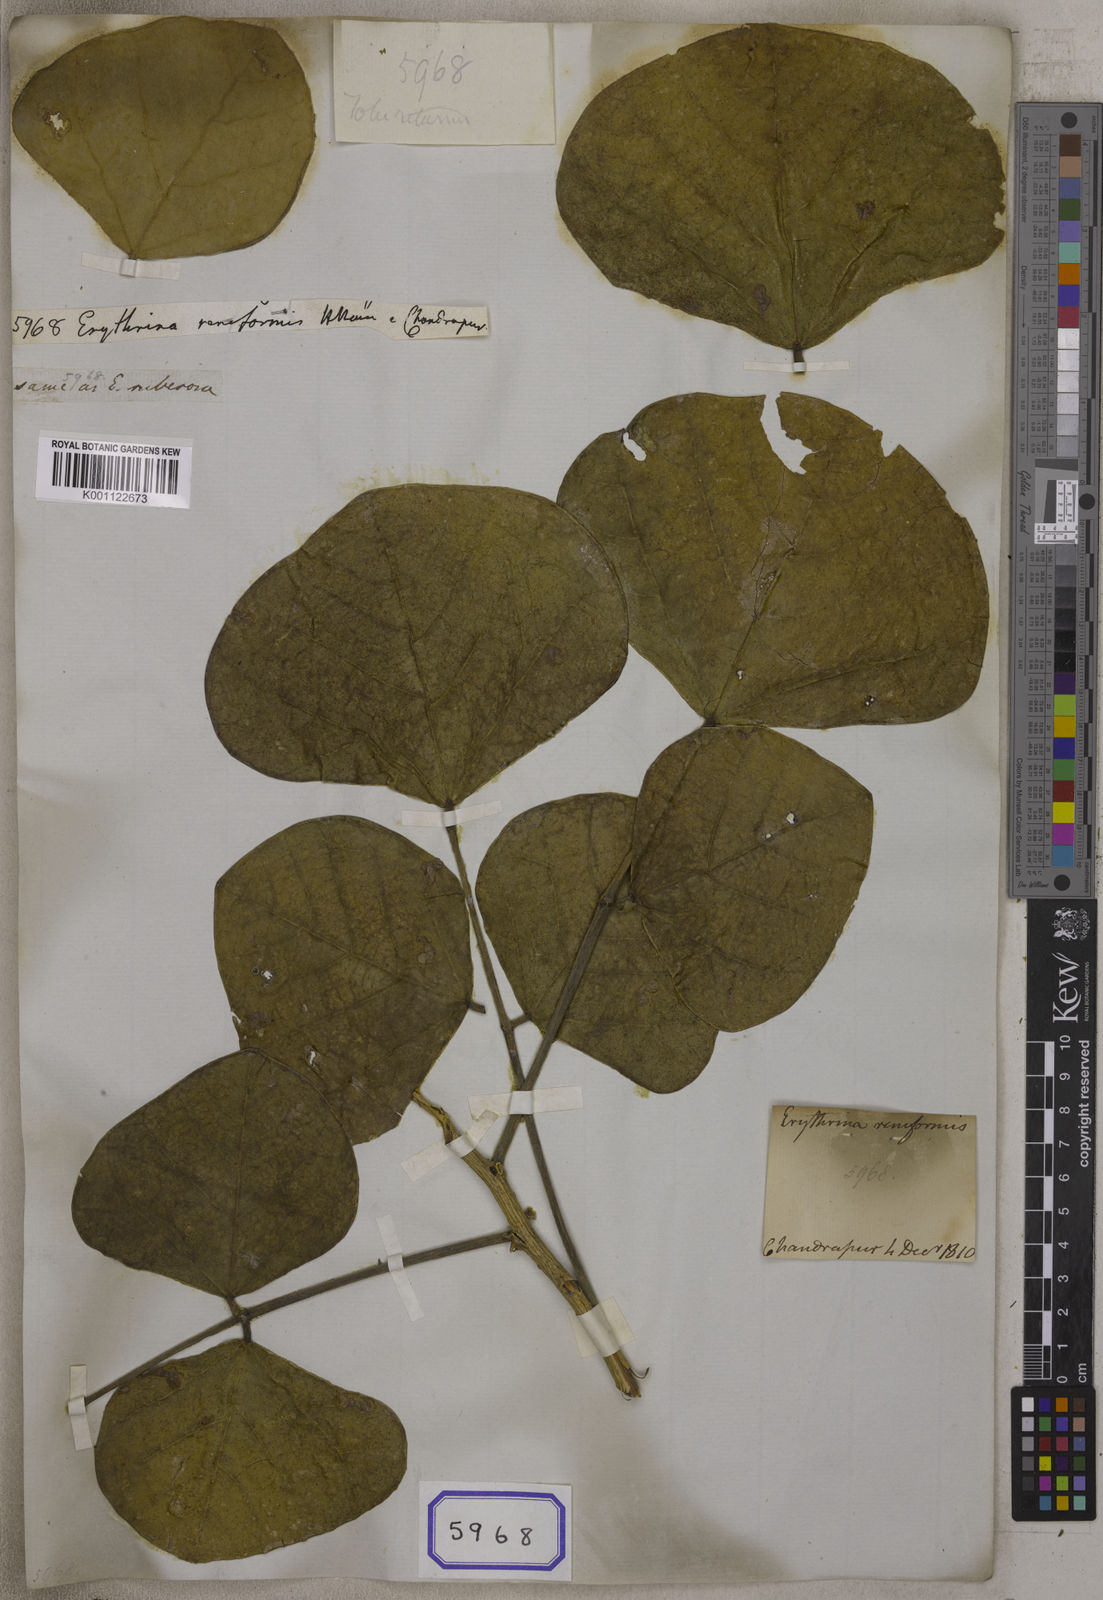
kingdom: Plantae
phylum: Tracheophyta
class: Magnoliopsida
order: Fabales
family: Fabaceae
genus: Erythrina
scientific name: Erythrina suberosa
